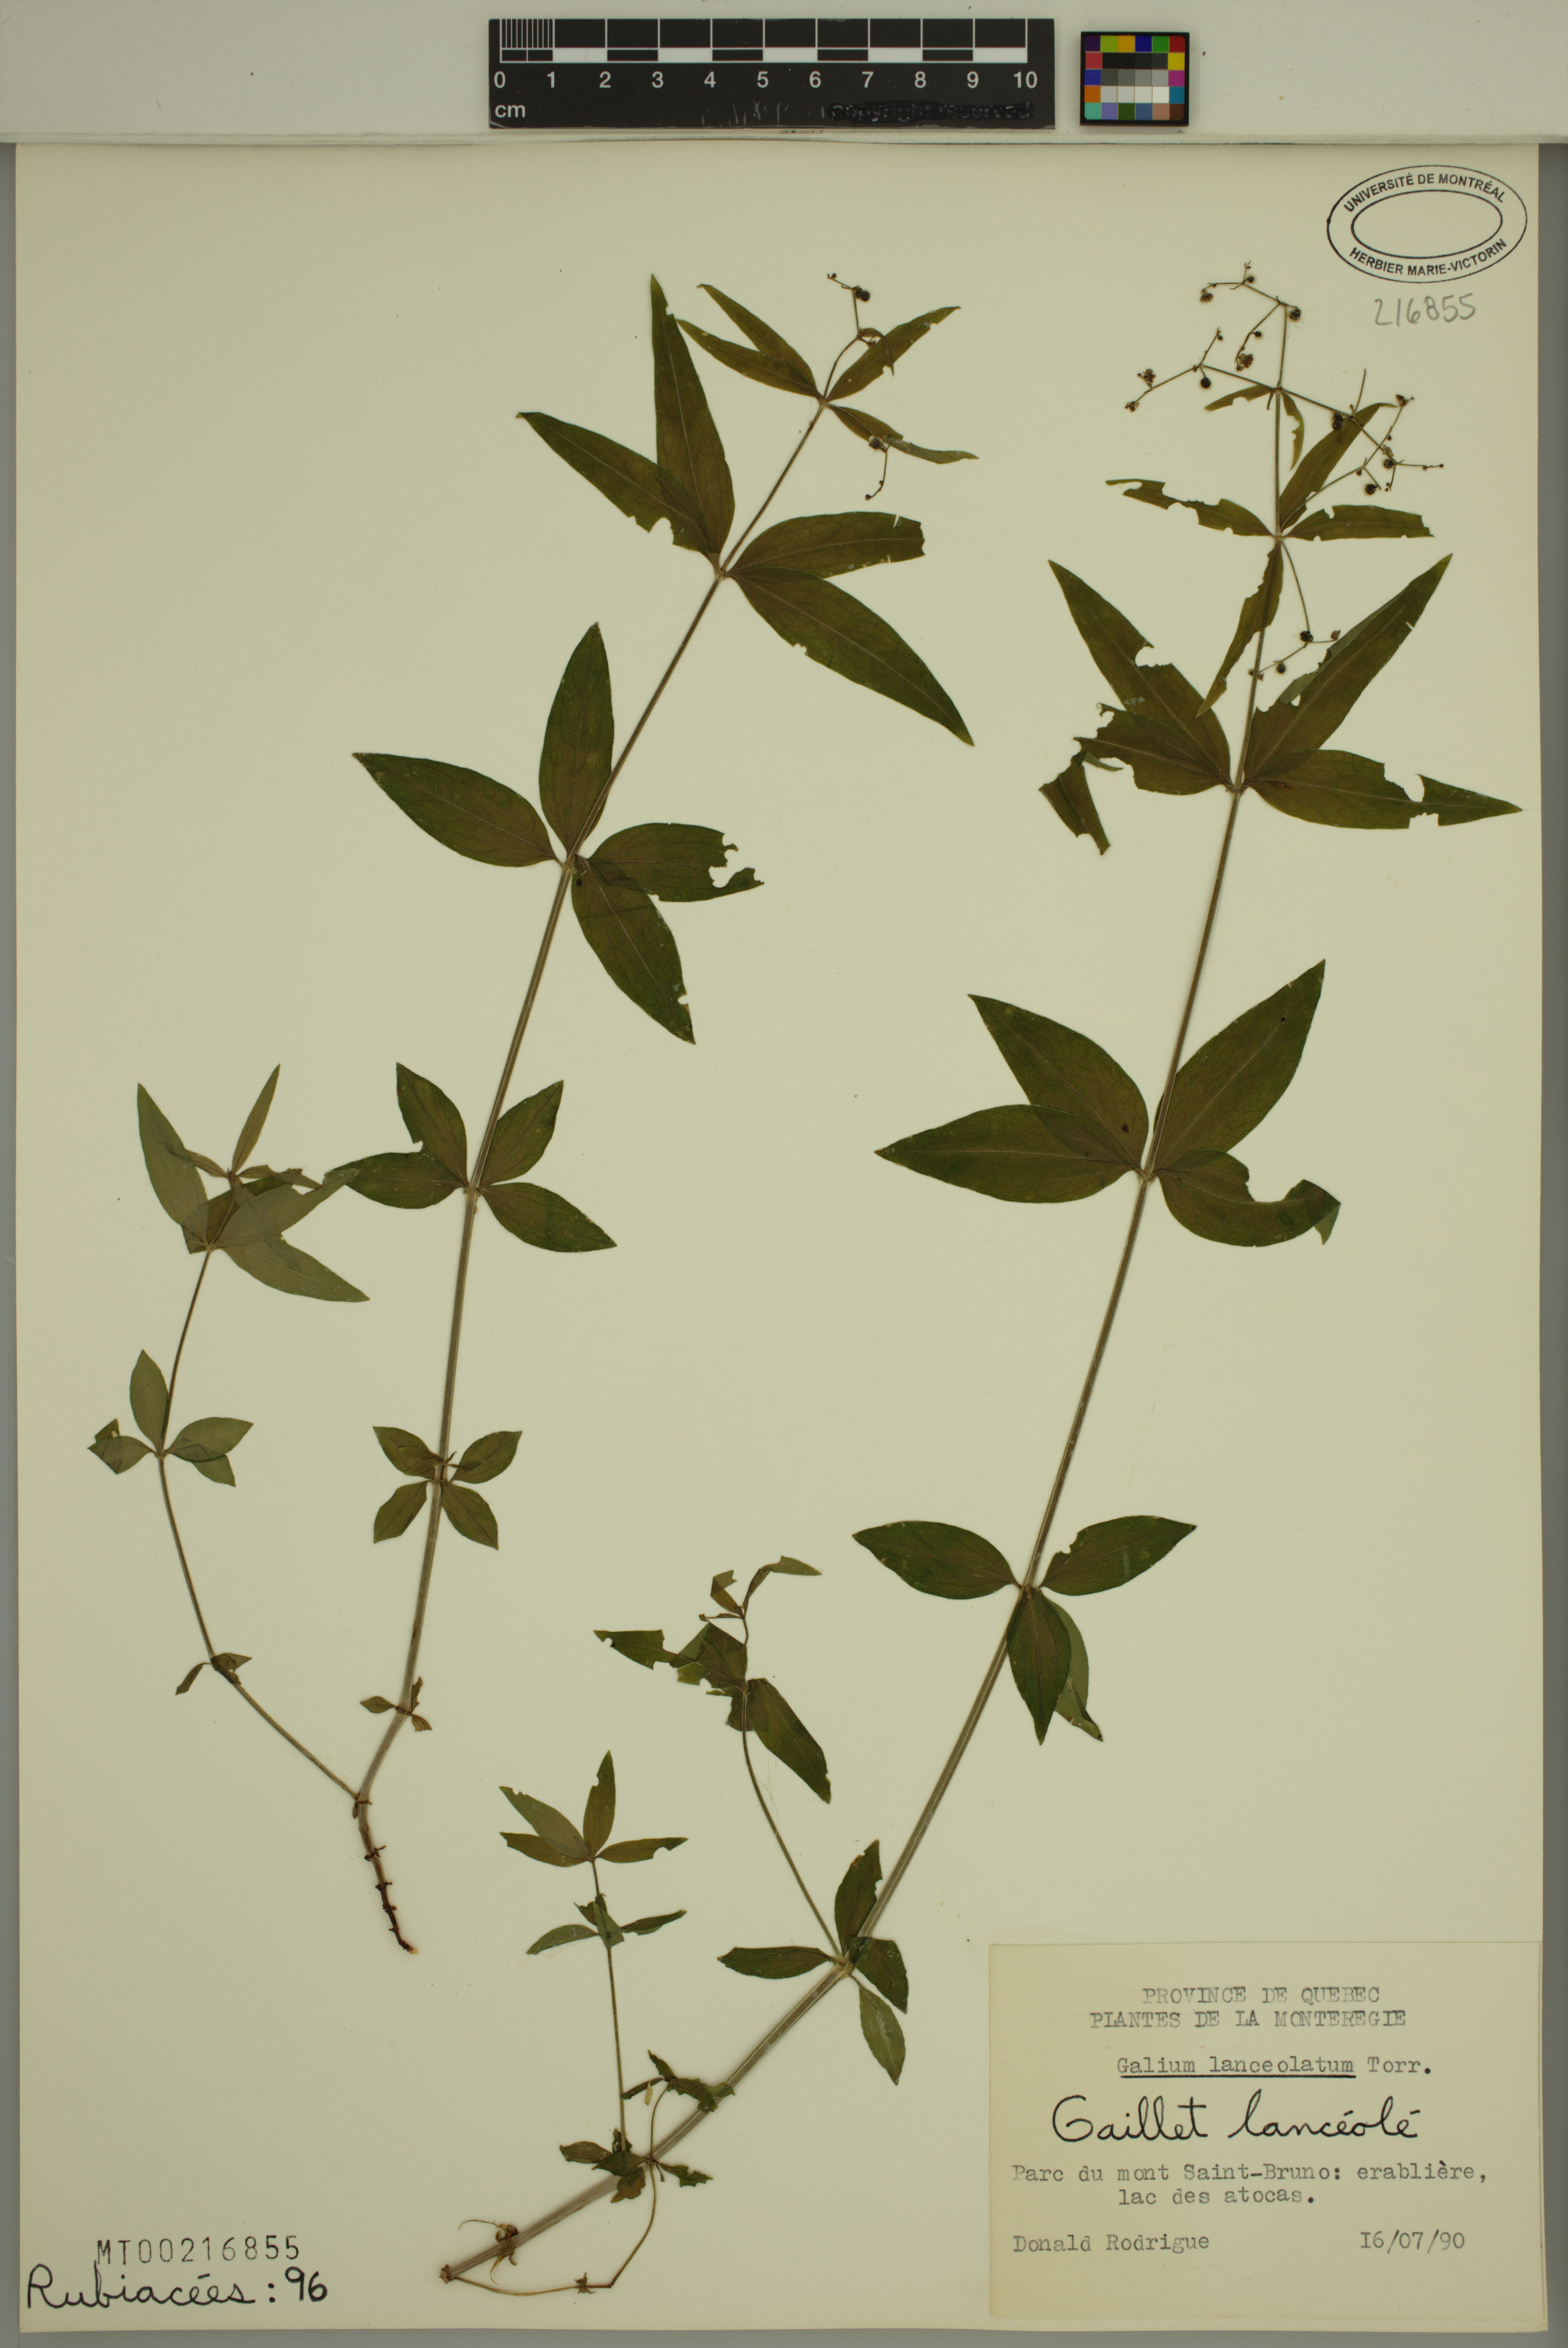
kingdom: Plantae
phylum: Tracheophyta
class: Magnoliopsida
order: Gentianales
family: Rubiaceae
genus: Galium
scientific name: Galium lanceolatum
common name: Lance-leaved wild licorice
